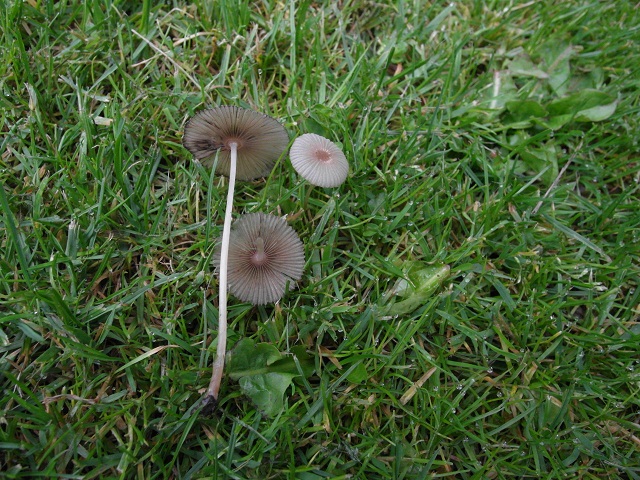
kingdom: Fungi
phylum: Basidiomycota
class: Agaricomycetes
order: Agaricales
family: Psathyrellaceae
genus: Parasola
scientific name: Parasola kuehneri
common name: skygge-hjulhat
